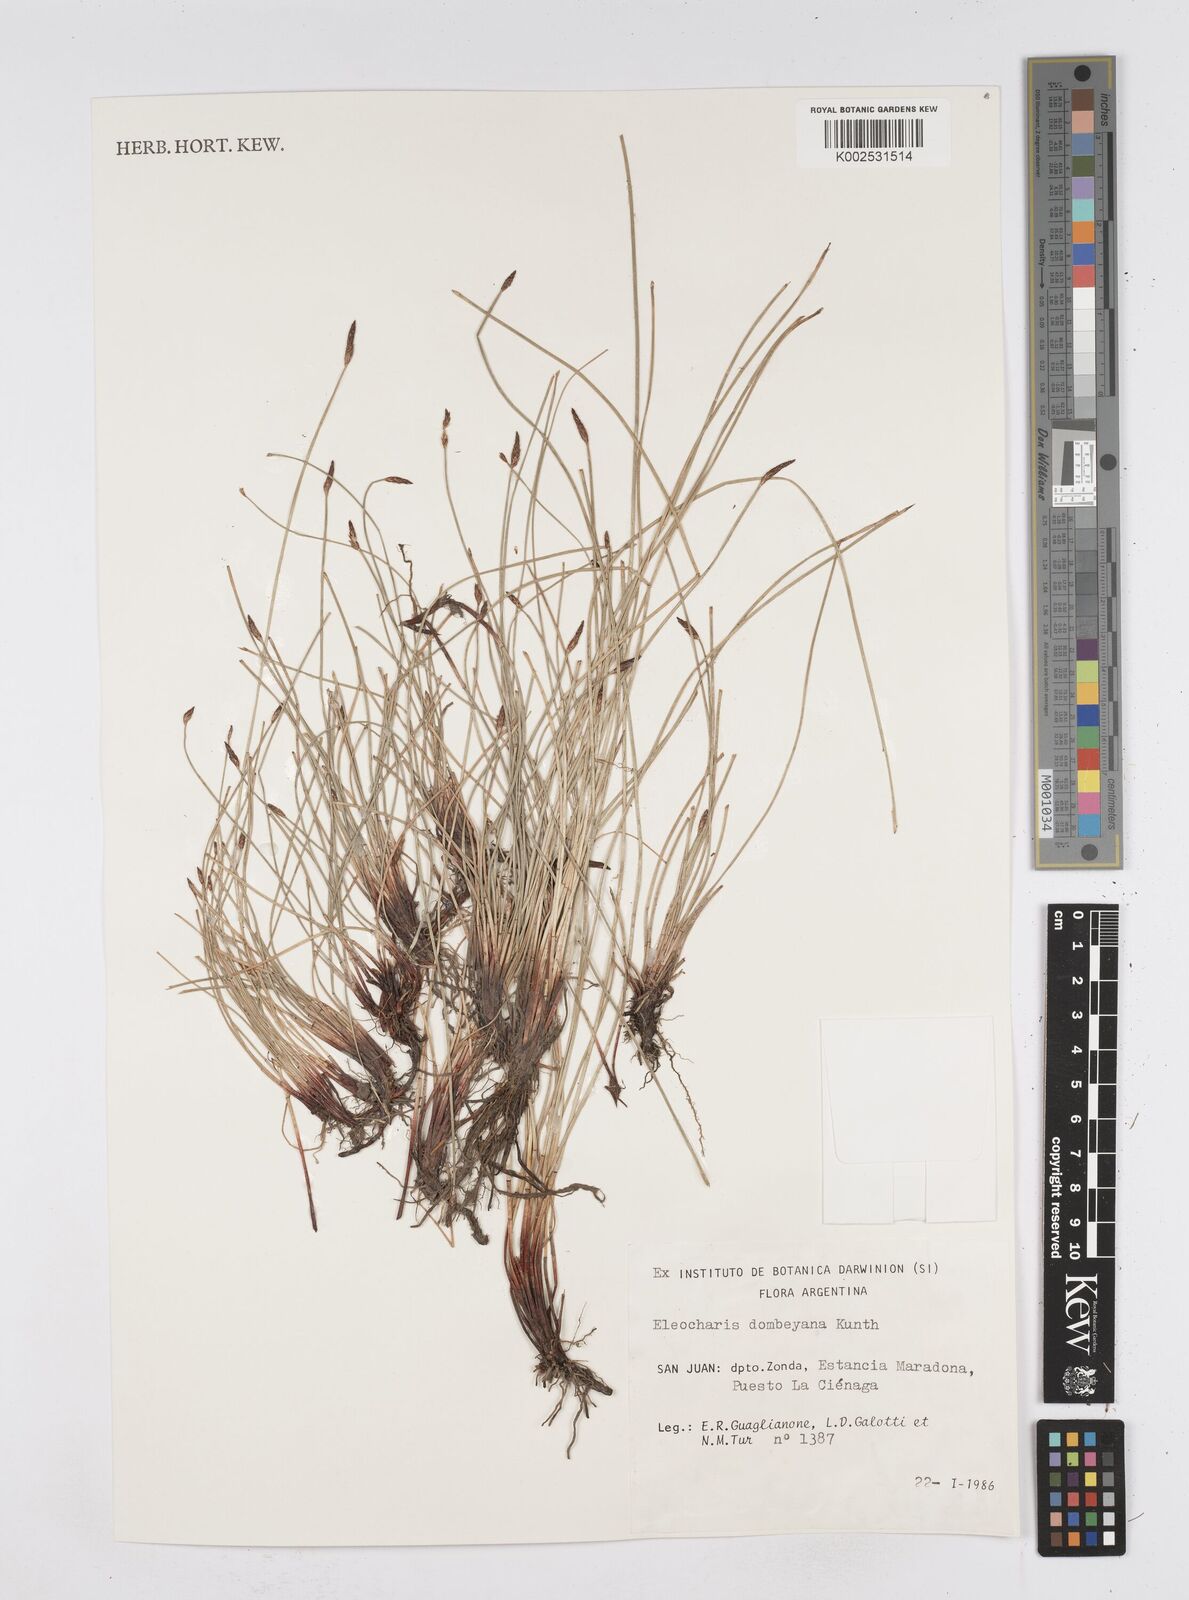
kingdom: Plantae
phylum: Tracheophyta
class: Liliopsida
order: Poales
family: Cyperaceae
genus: Eleocharis
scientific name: Eleocharis dombeyana
